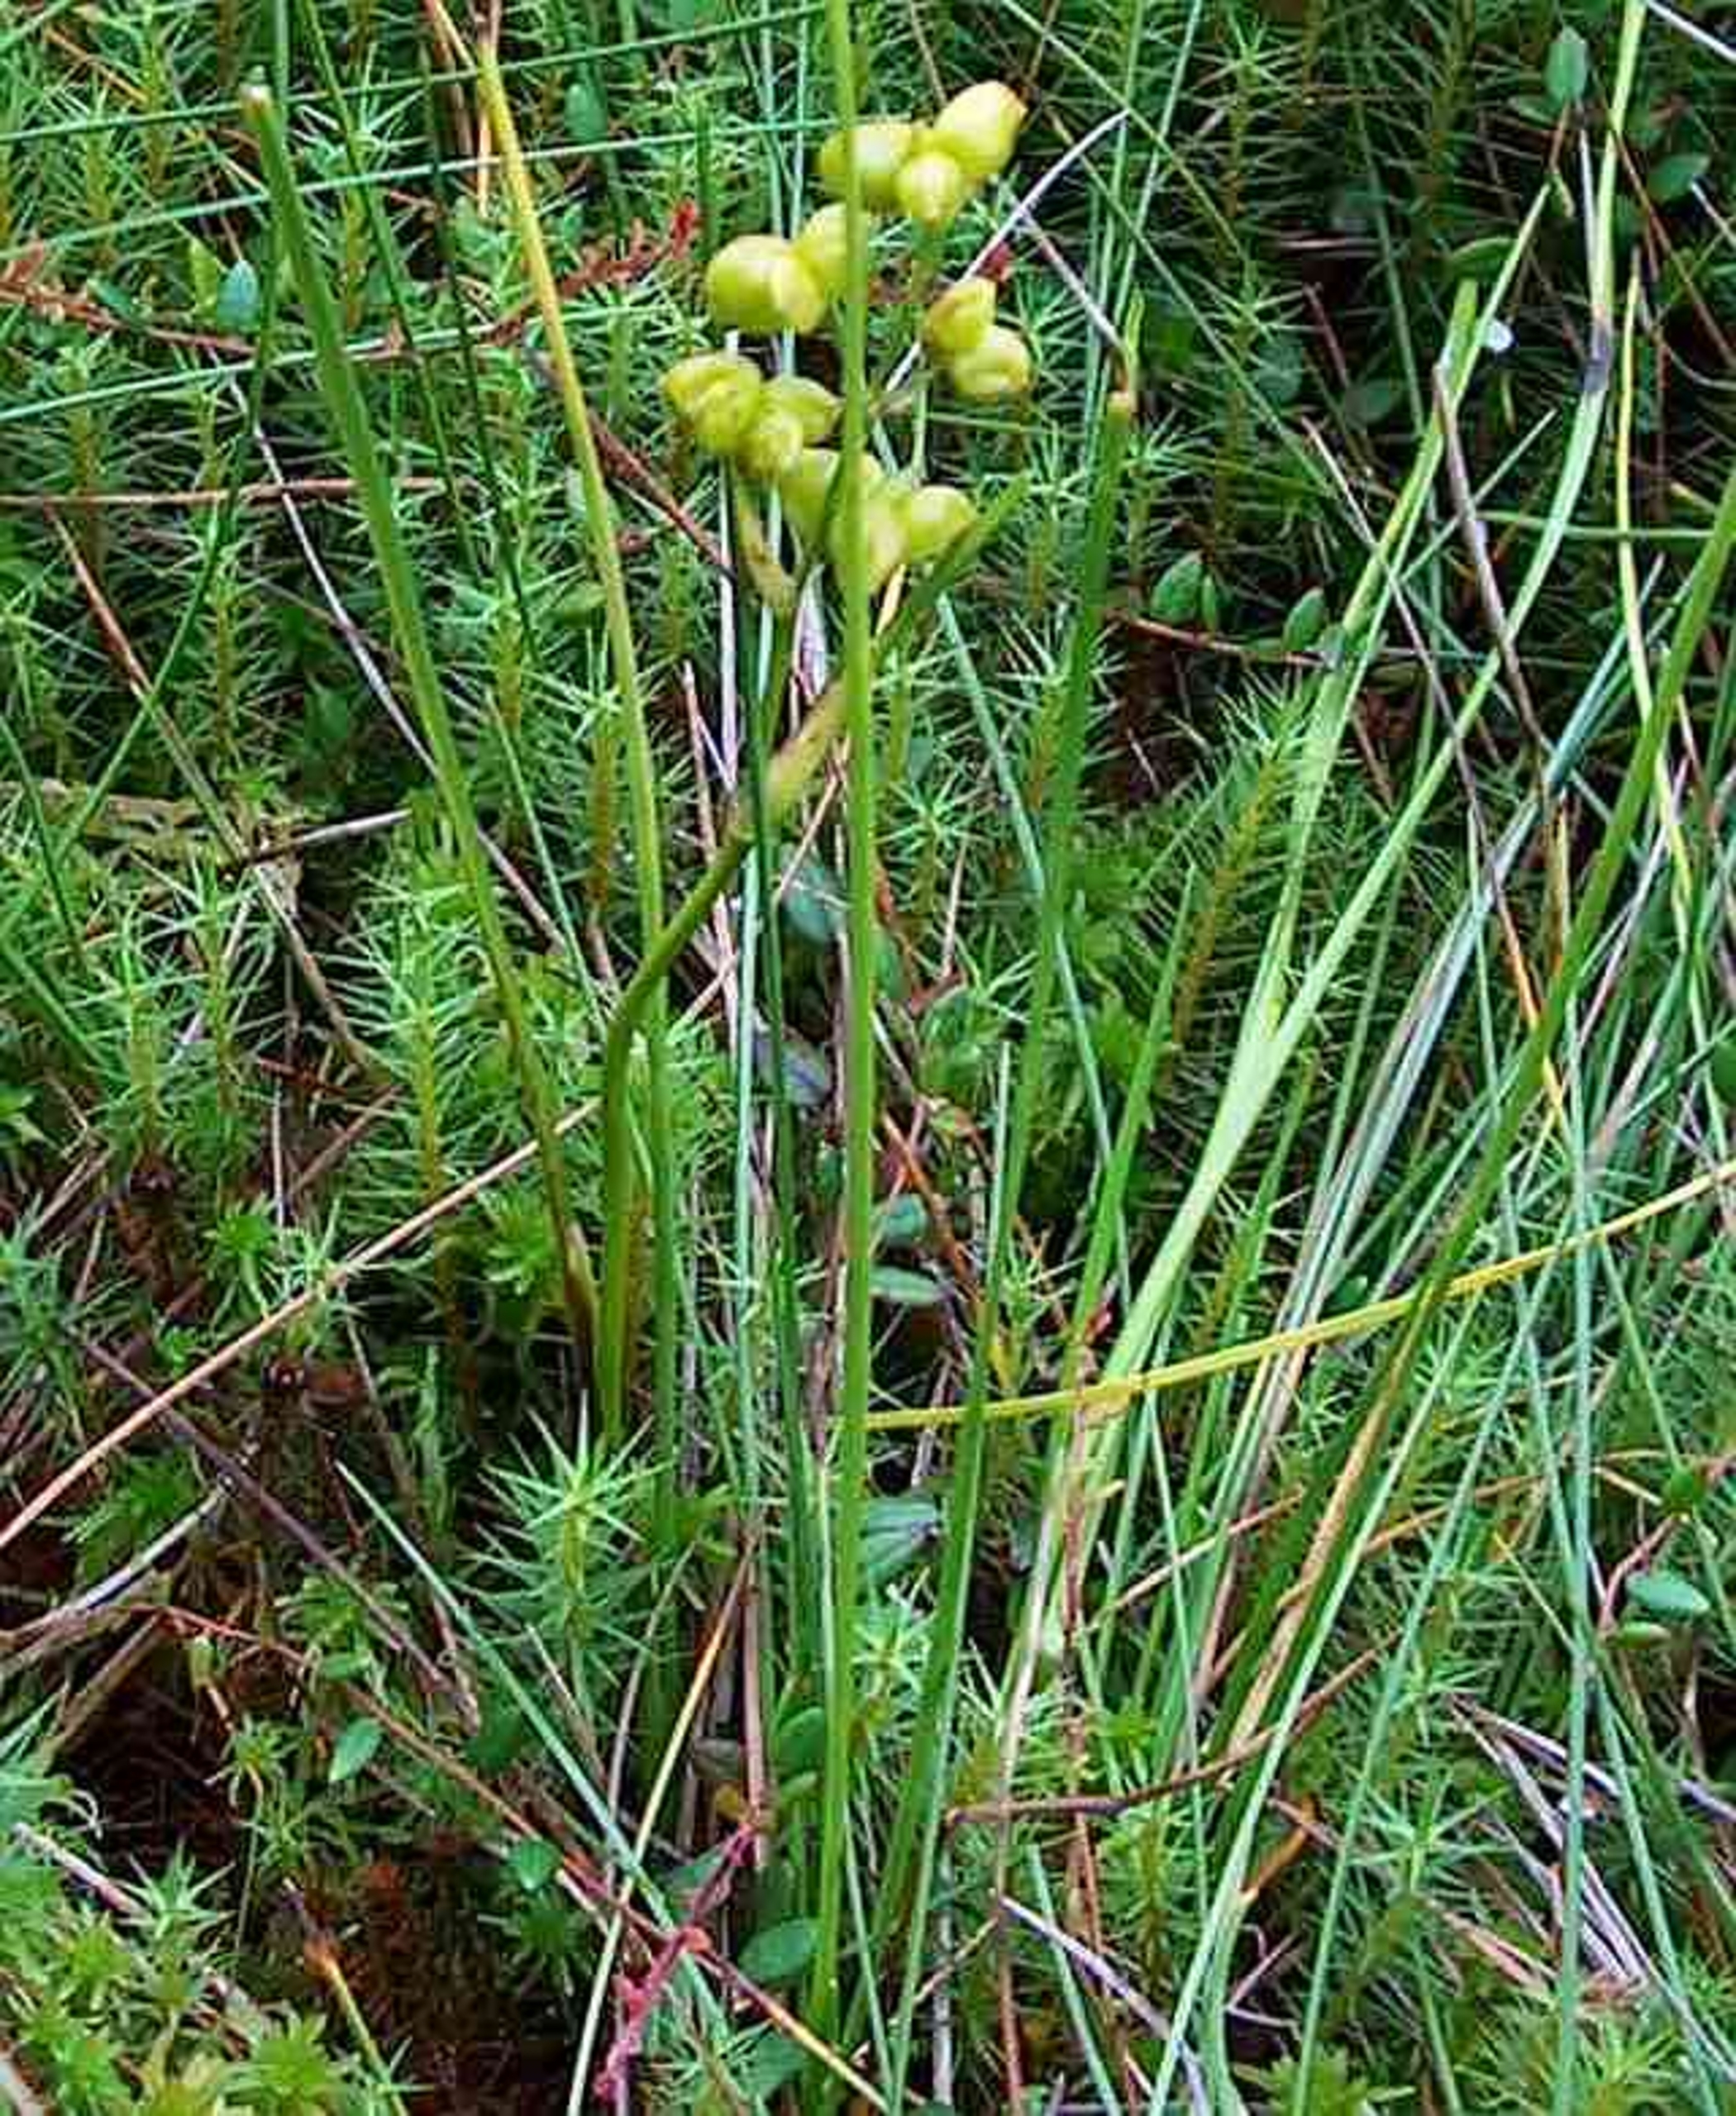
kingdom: Plantae
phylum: Tracheophyta
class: Liliopsida
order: Alismatales
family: Scheuchzeriaceae
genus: Scheuchzeria
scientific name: Scheuchzeria palustris
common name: Blomstersiv
